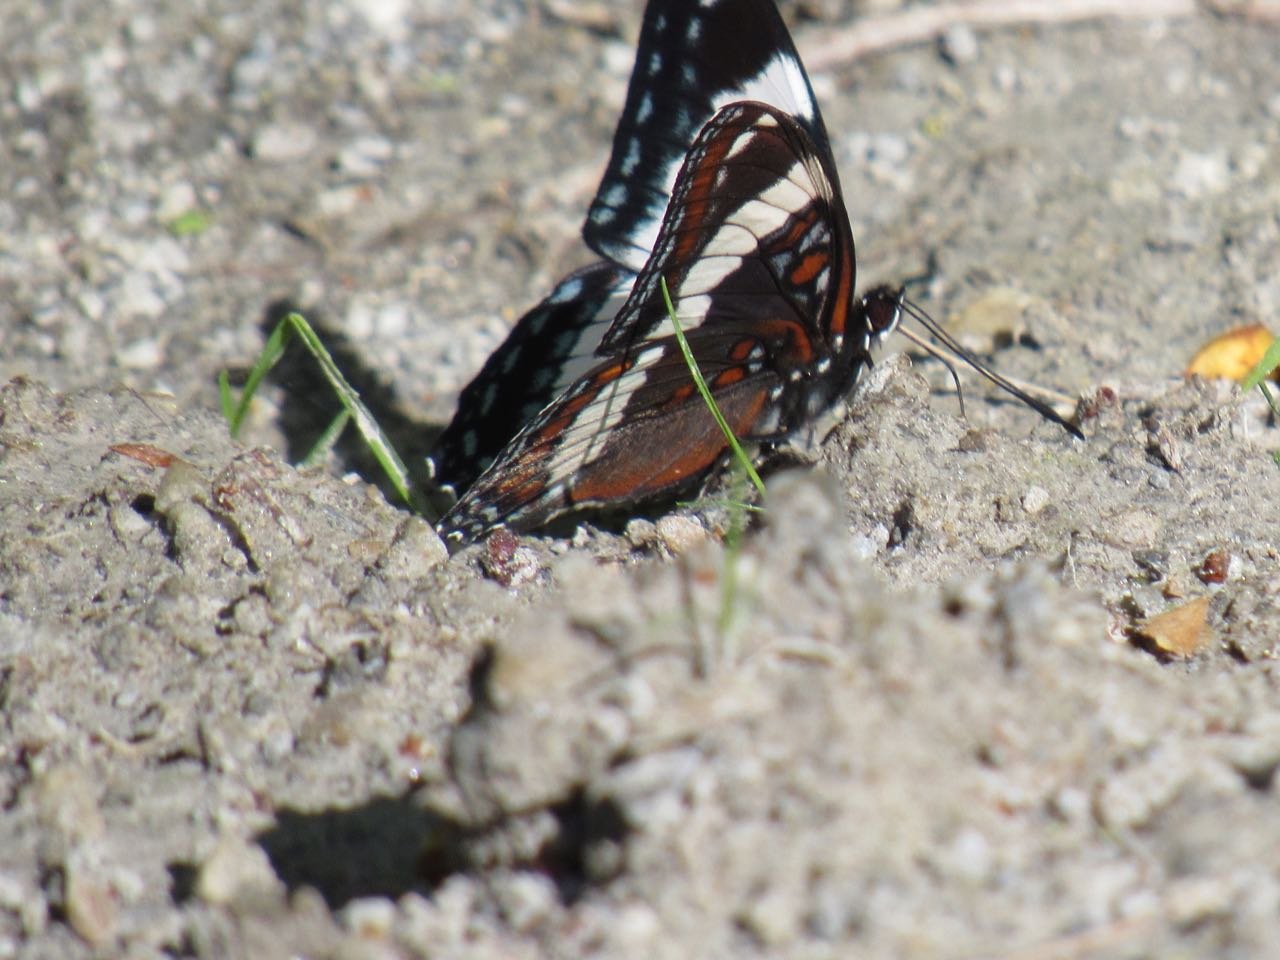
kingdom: Animalia
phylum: Arthropoda
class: Insecta
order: Lepidoptera
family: Nymphalidae
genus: Limenitis
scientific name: Limenitis arthemis
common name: Red-spotted Admiral
